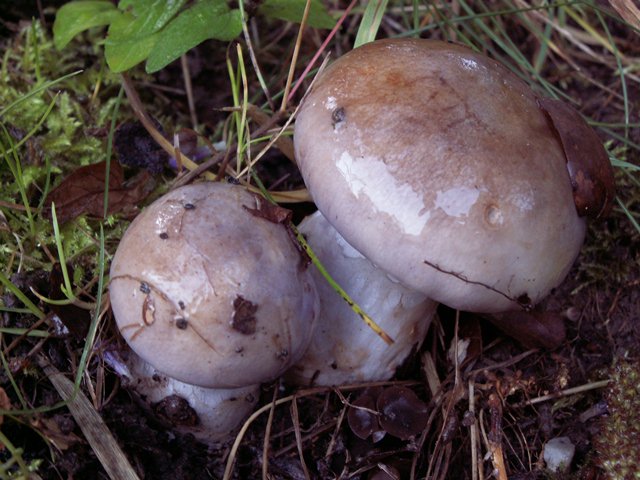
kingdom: Fungi
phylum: Basidiomycota
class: Agaricomycetes
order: Agaricales
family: Cortinariaceae
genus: Cortinarius
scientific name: Cortinarius largus
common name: violetrandet slørhat
